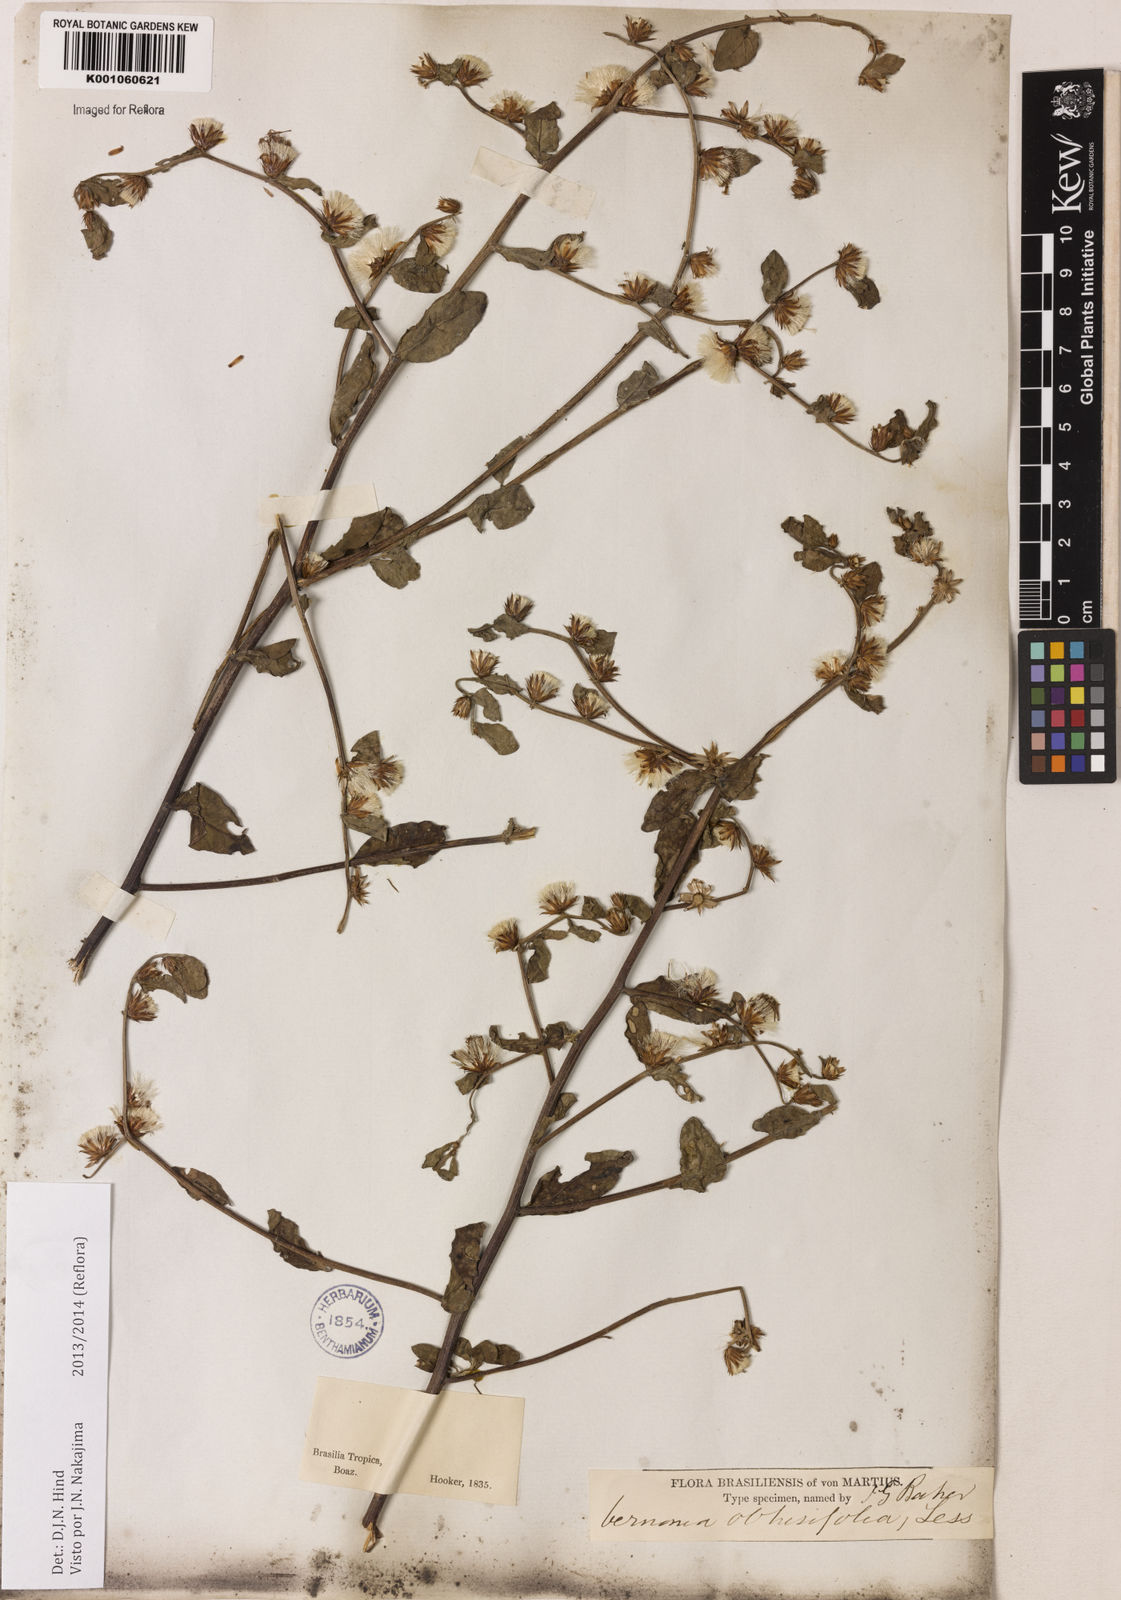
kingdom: Plantae
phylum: Tracheophyta
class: Magnoliopsida
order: Asterales
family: Asteraceae
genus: Lepidaploa
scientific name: Lepidaploa obtusifolia
